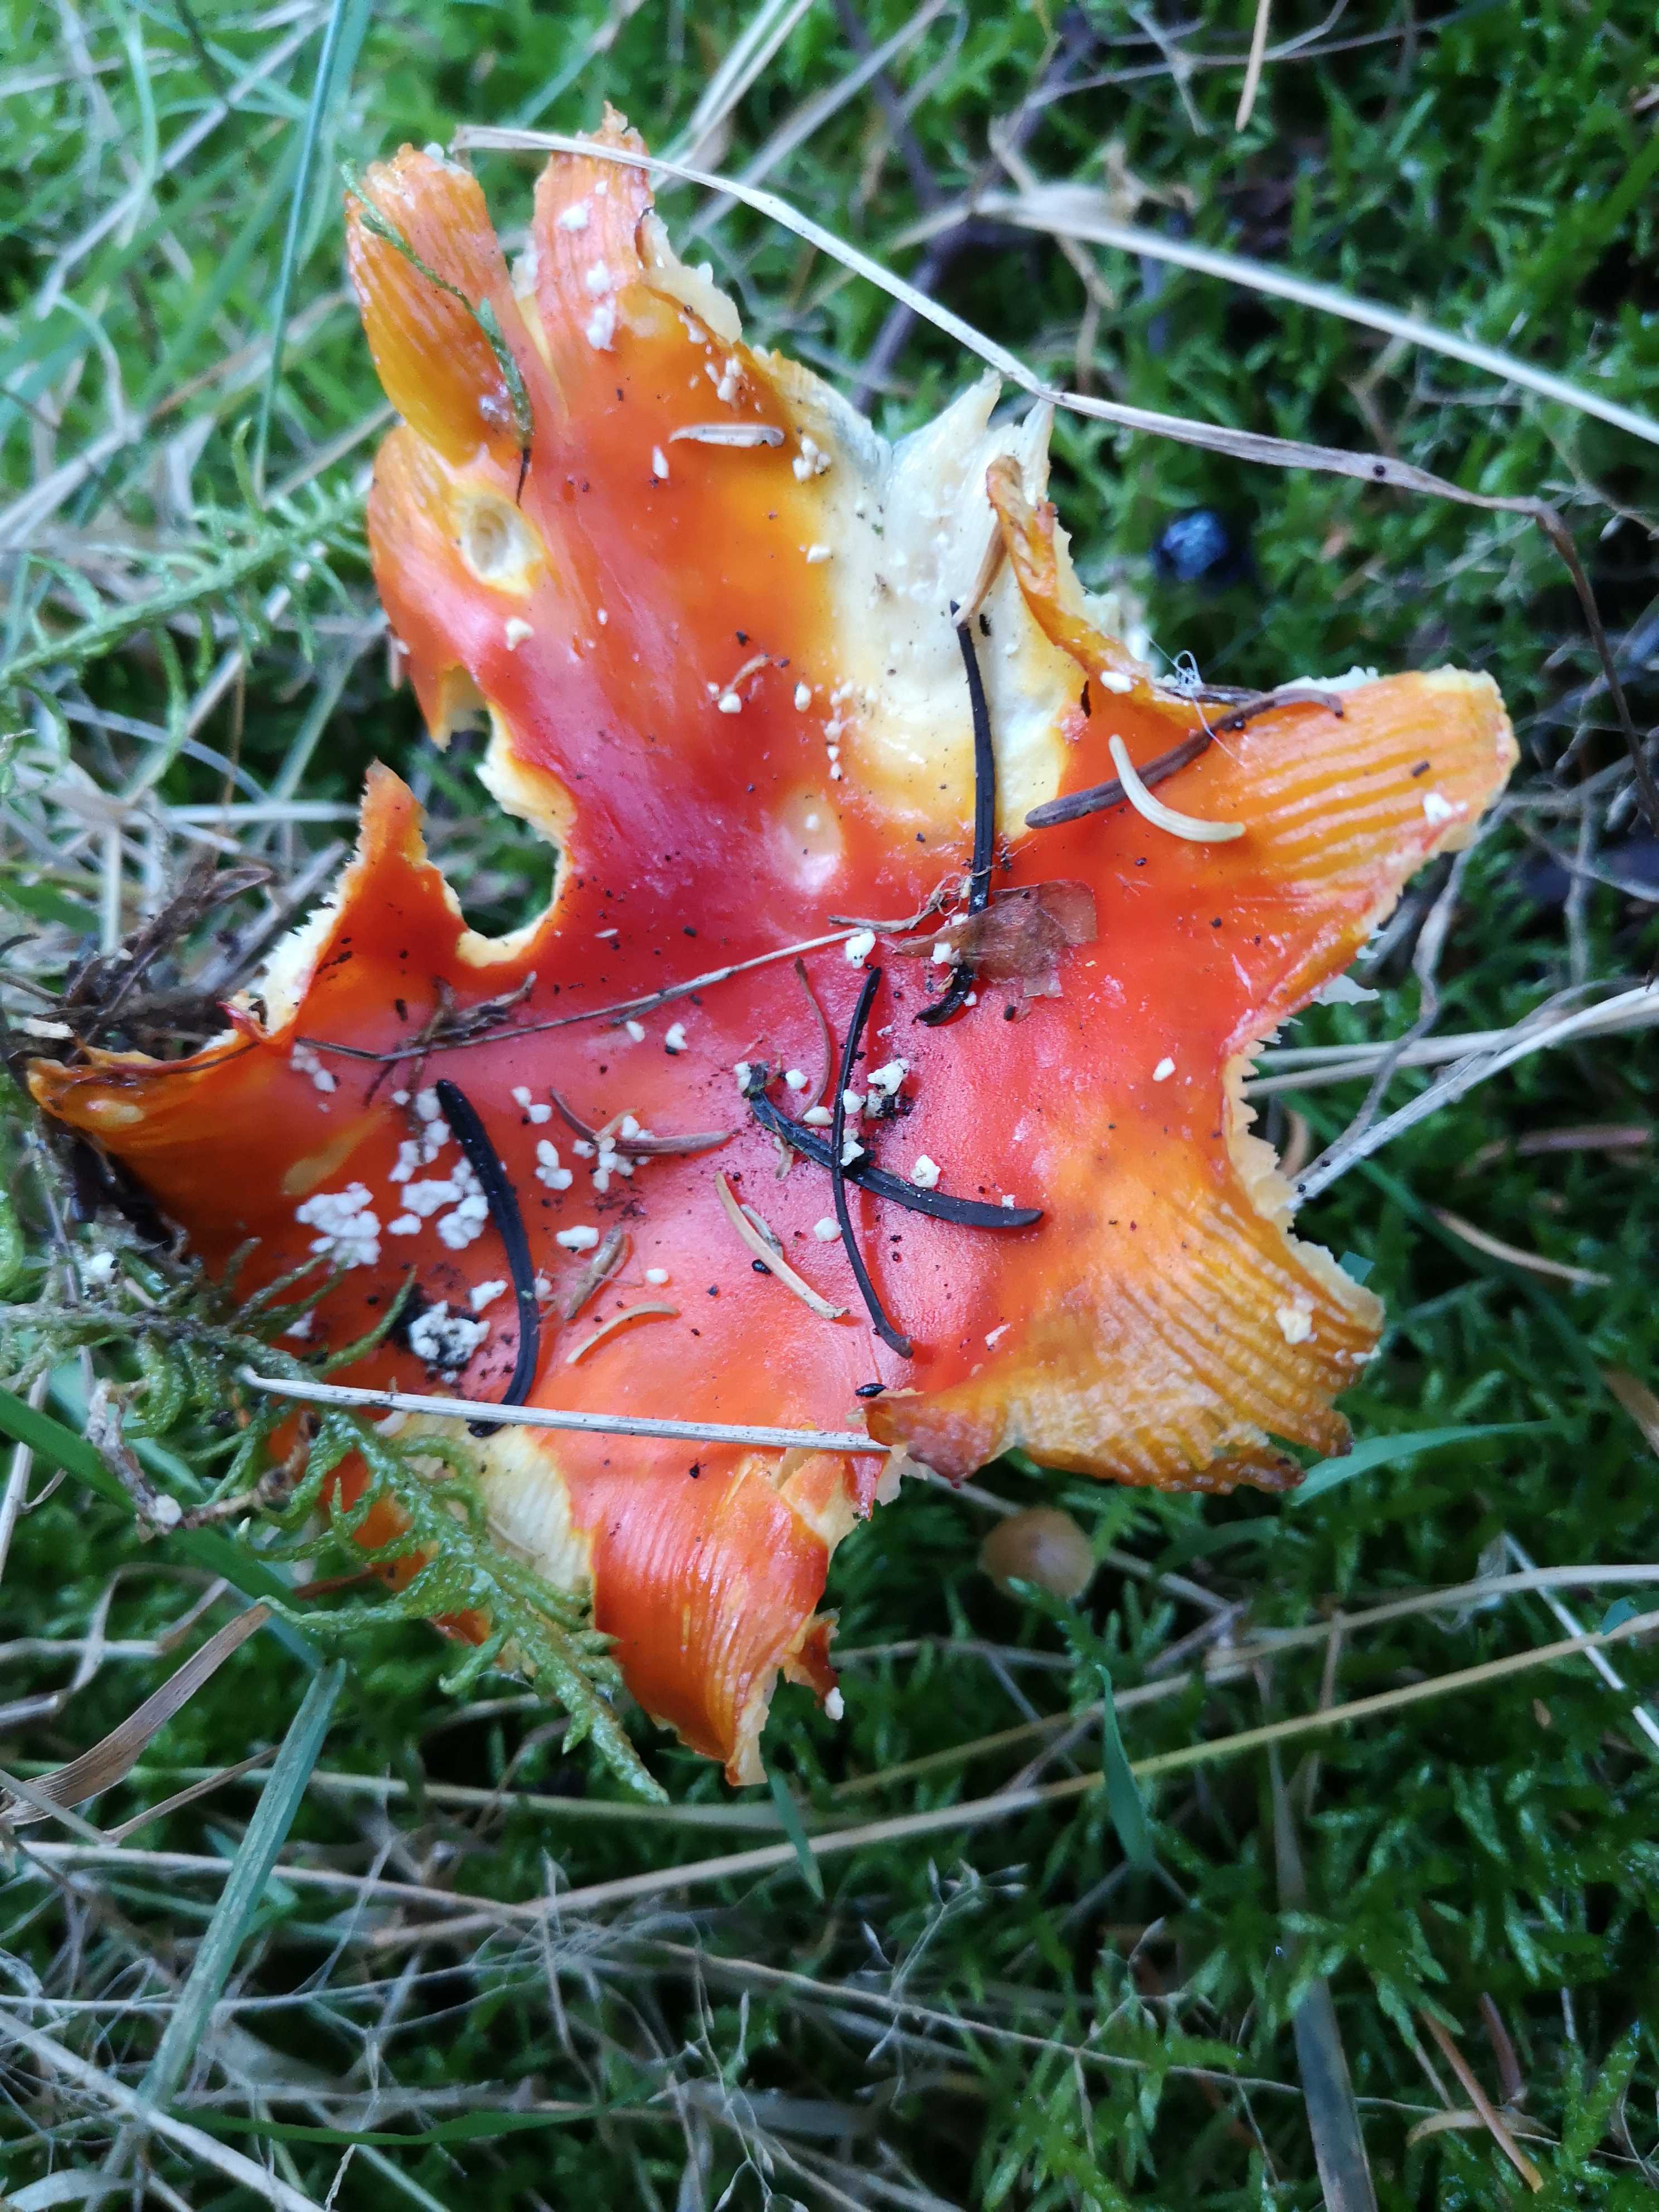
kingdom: Fungi
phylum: Basidiomycota
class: Agaricomycetes
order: Agaricales
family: Amanitaceae
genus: Amanita
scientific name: Amanita muscaria
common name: rød fluesvamp
